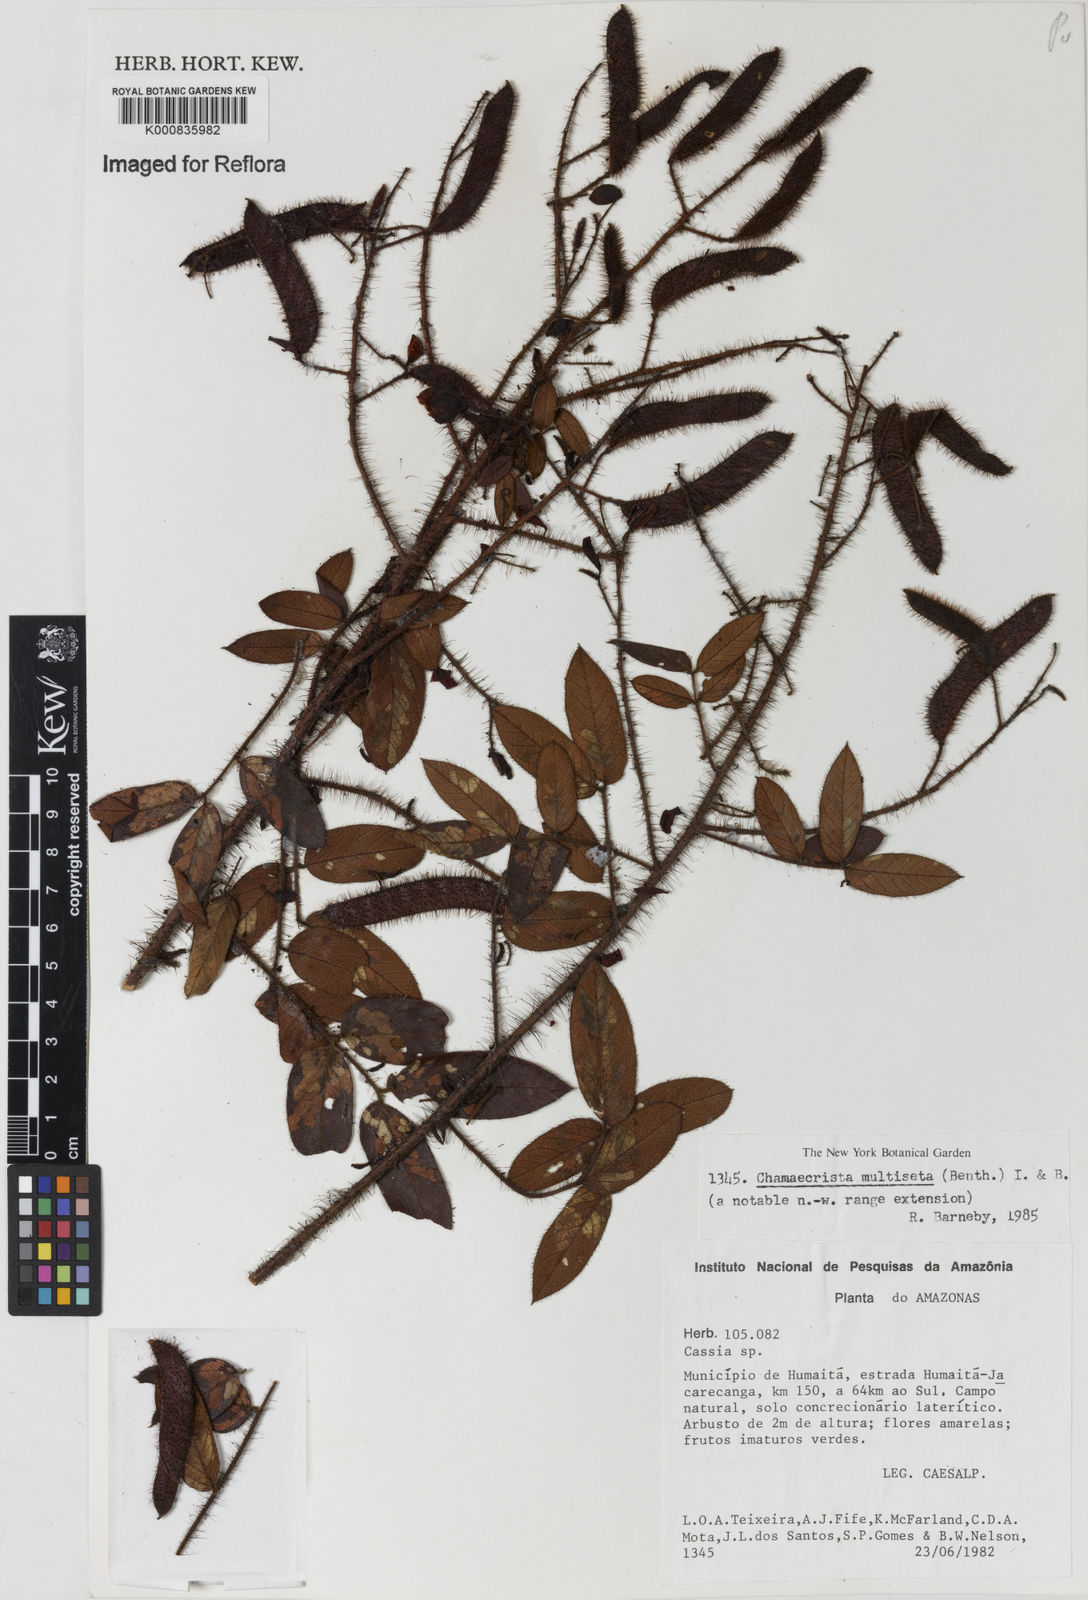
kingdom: Plantae
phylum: Tracheophyta
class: Magnoliopsida
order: Fabales
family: Fabaceae
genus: Chamaecrista
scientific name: Chamaecrista multiseta
